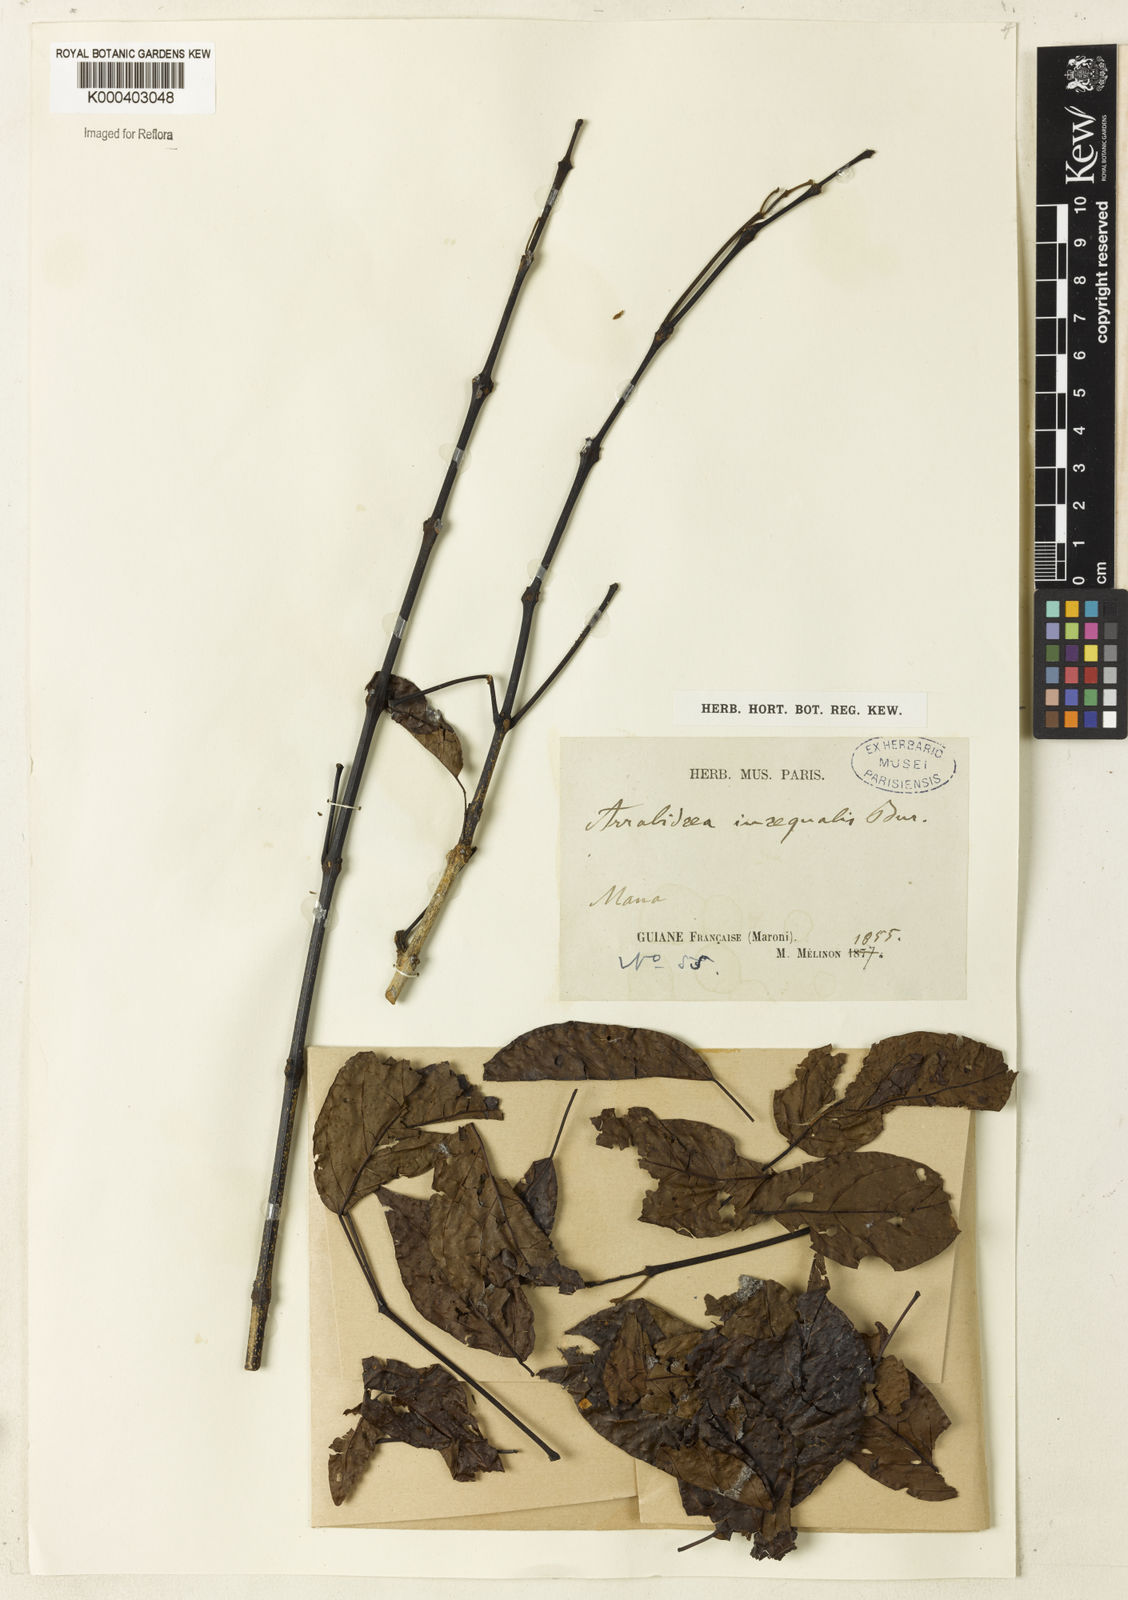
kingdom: Plantae
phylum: Tracheophyta
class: Magnoliopsida
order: Lamiales
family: Bignoniaceae
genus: Cuspidaria
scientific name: Cuspidaria inaequalis
